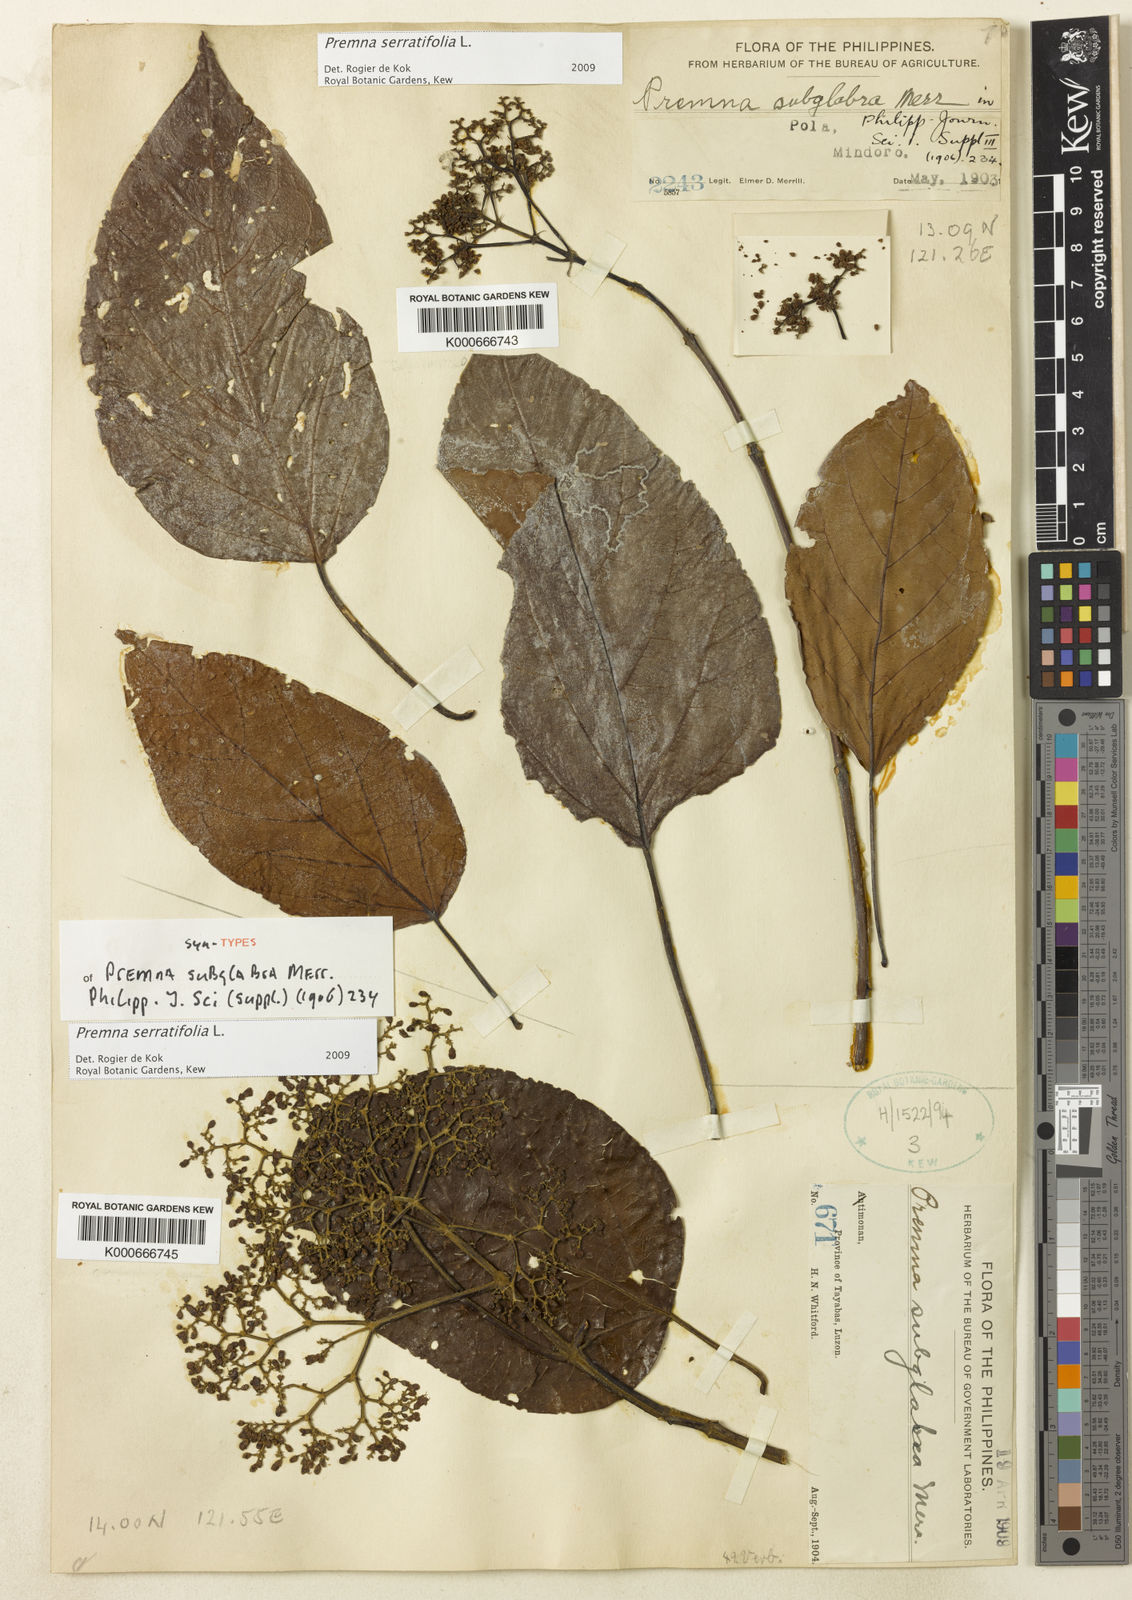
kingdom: Plantae
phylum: Tracheophyta
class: Magnoliopsida
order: Lamiales
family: Lamiaceae
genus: Premna
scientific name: Premna serratifolia
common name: Bastard guelder
